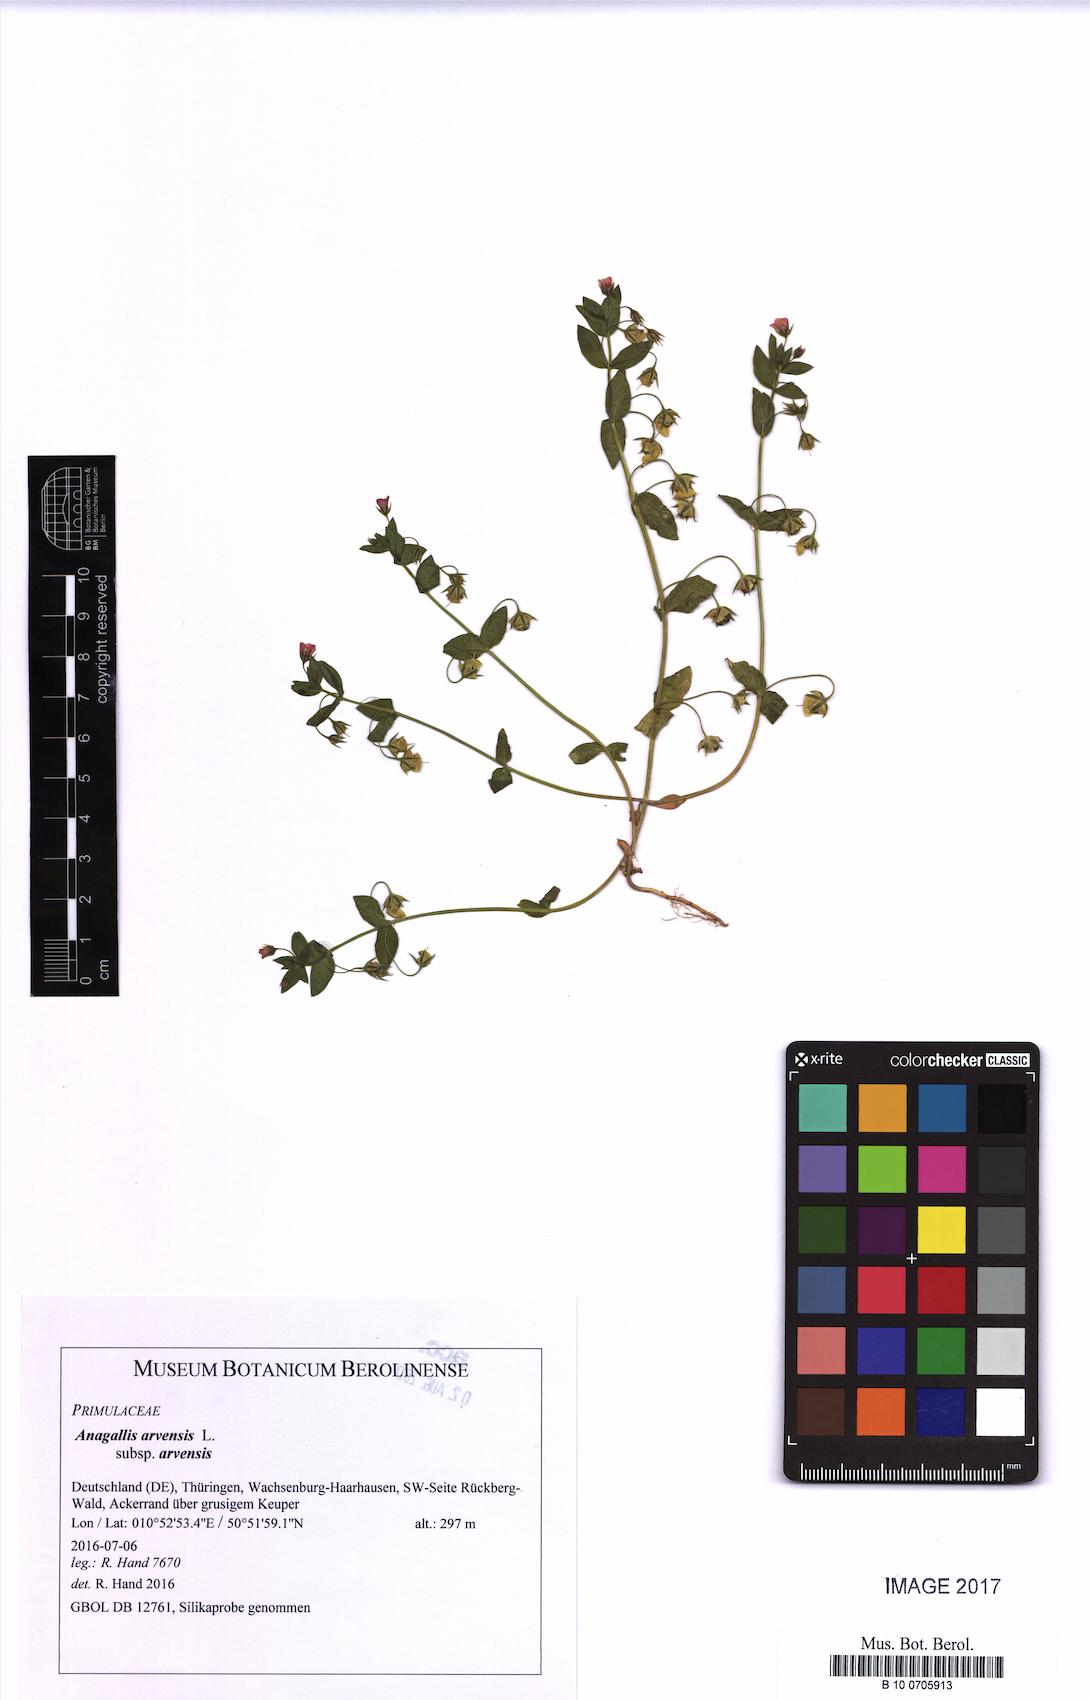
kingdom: Plantae
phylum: Tracheophyta
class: Magnoliopsida
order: Ericales
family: Primulaceae
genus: Lysimachia
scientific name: Lysimachia arvensis
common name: Scarlet pimpernel
